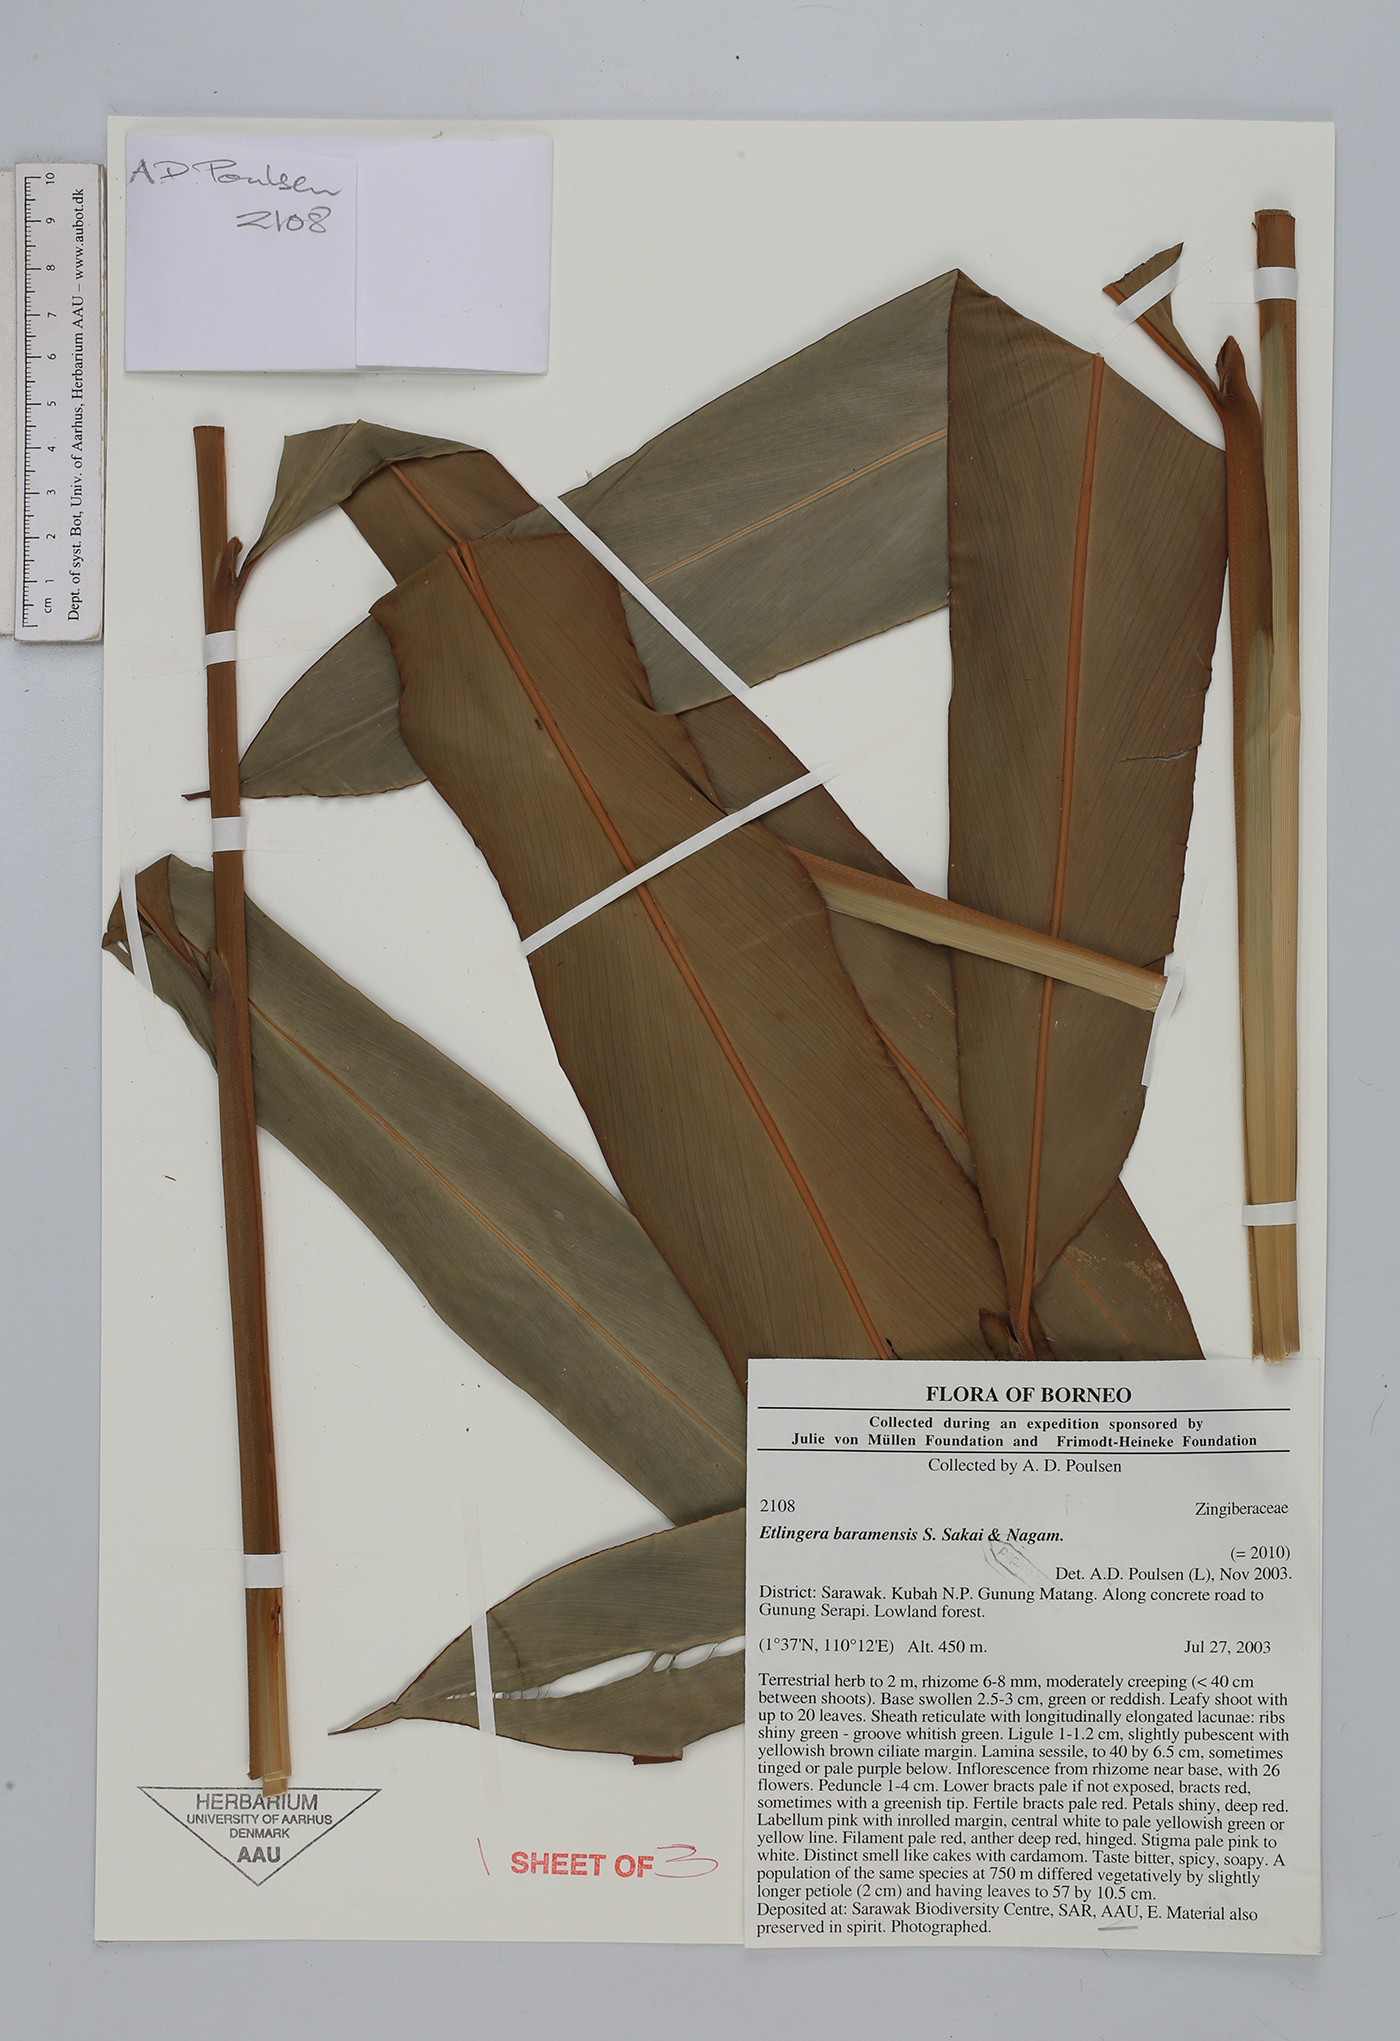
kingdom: Plantae
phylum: Tracheophyta
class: Liliopsida
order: Zingiberales
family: Zingiberaceae
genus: Etlingera
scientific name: Etlingera baramensis
